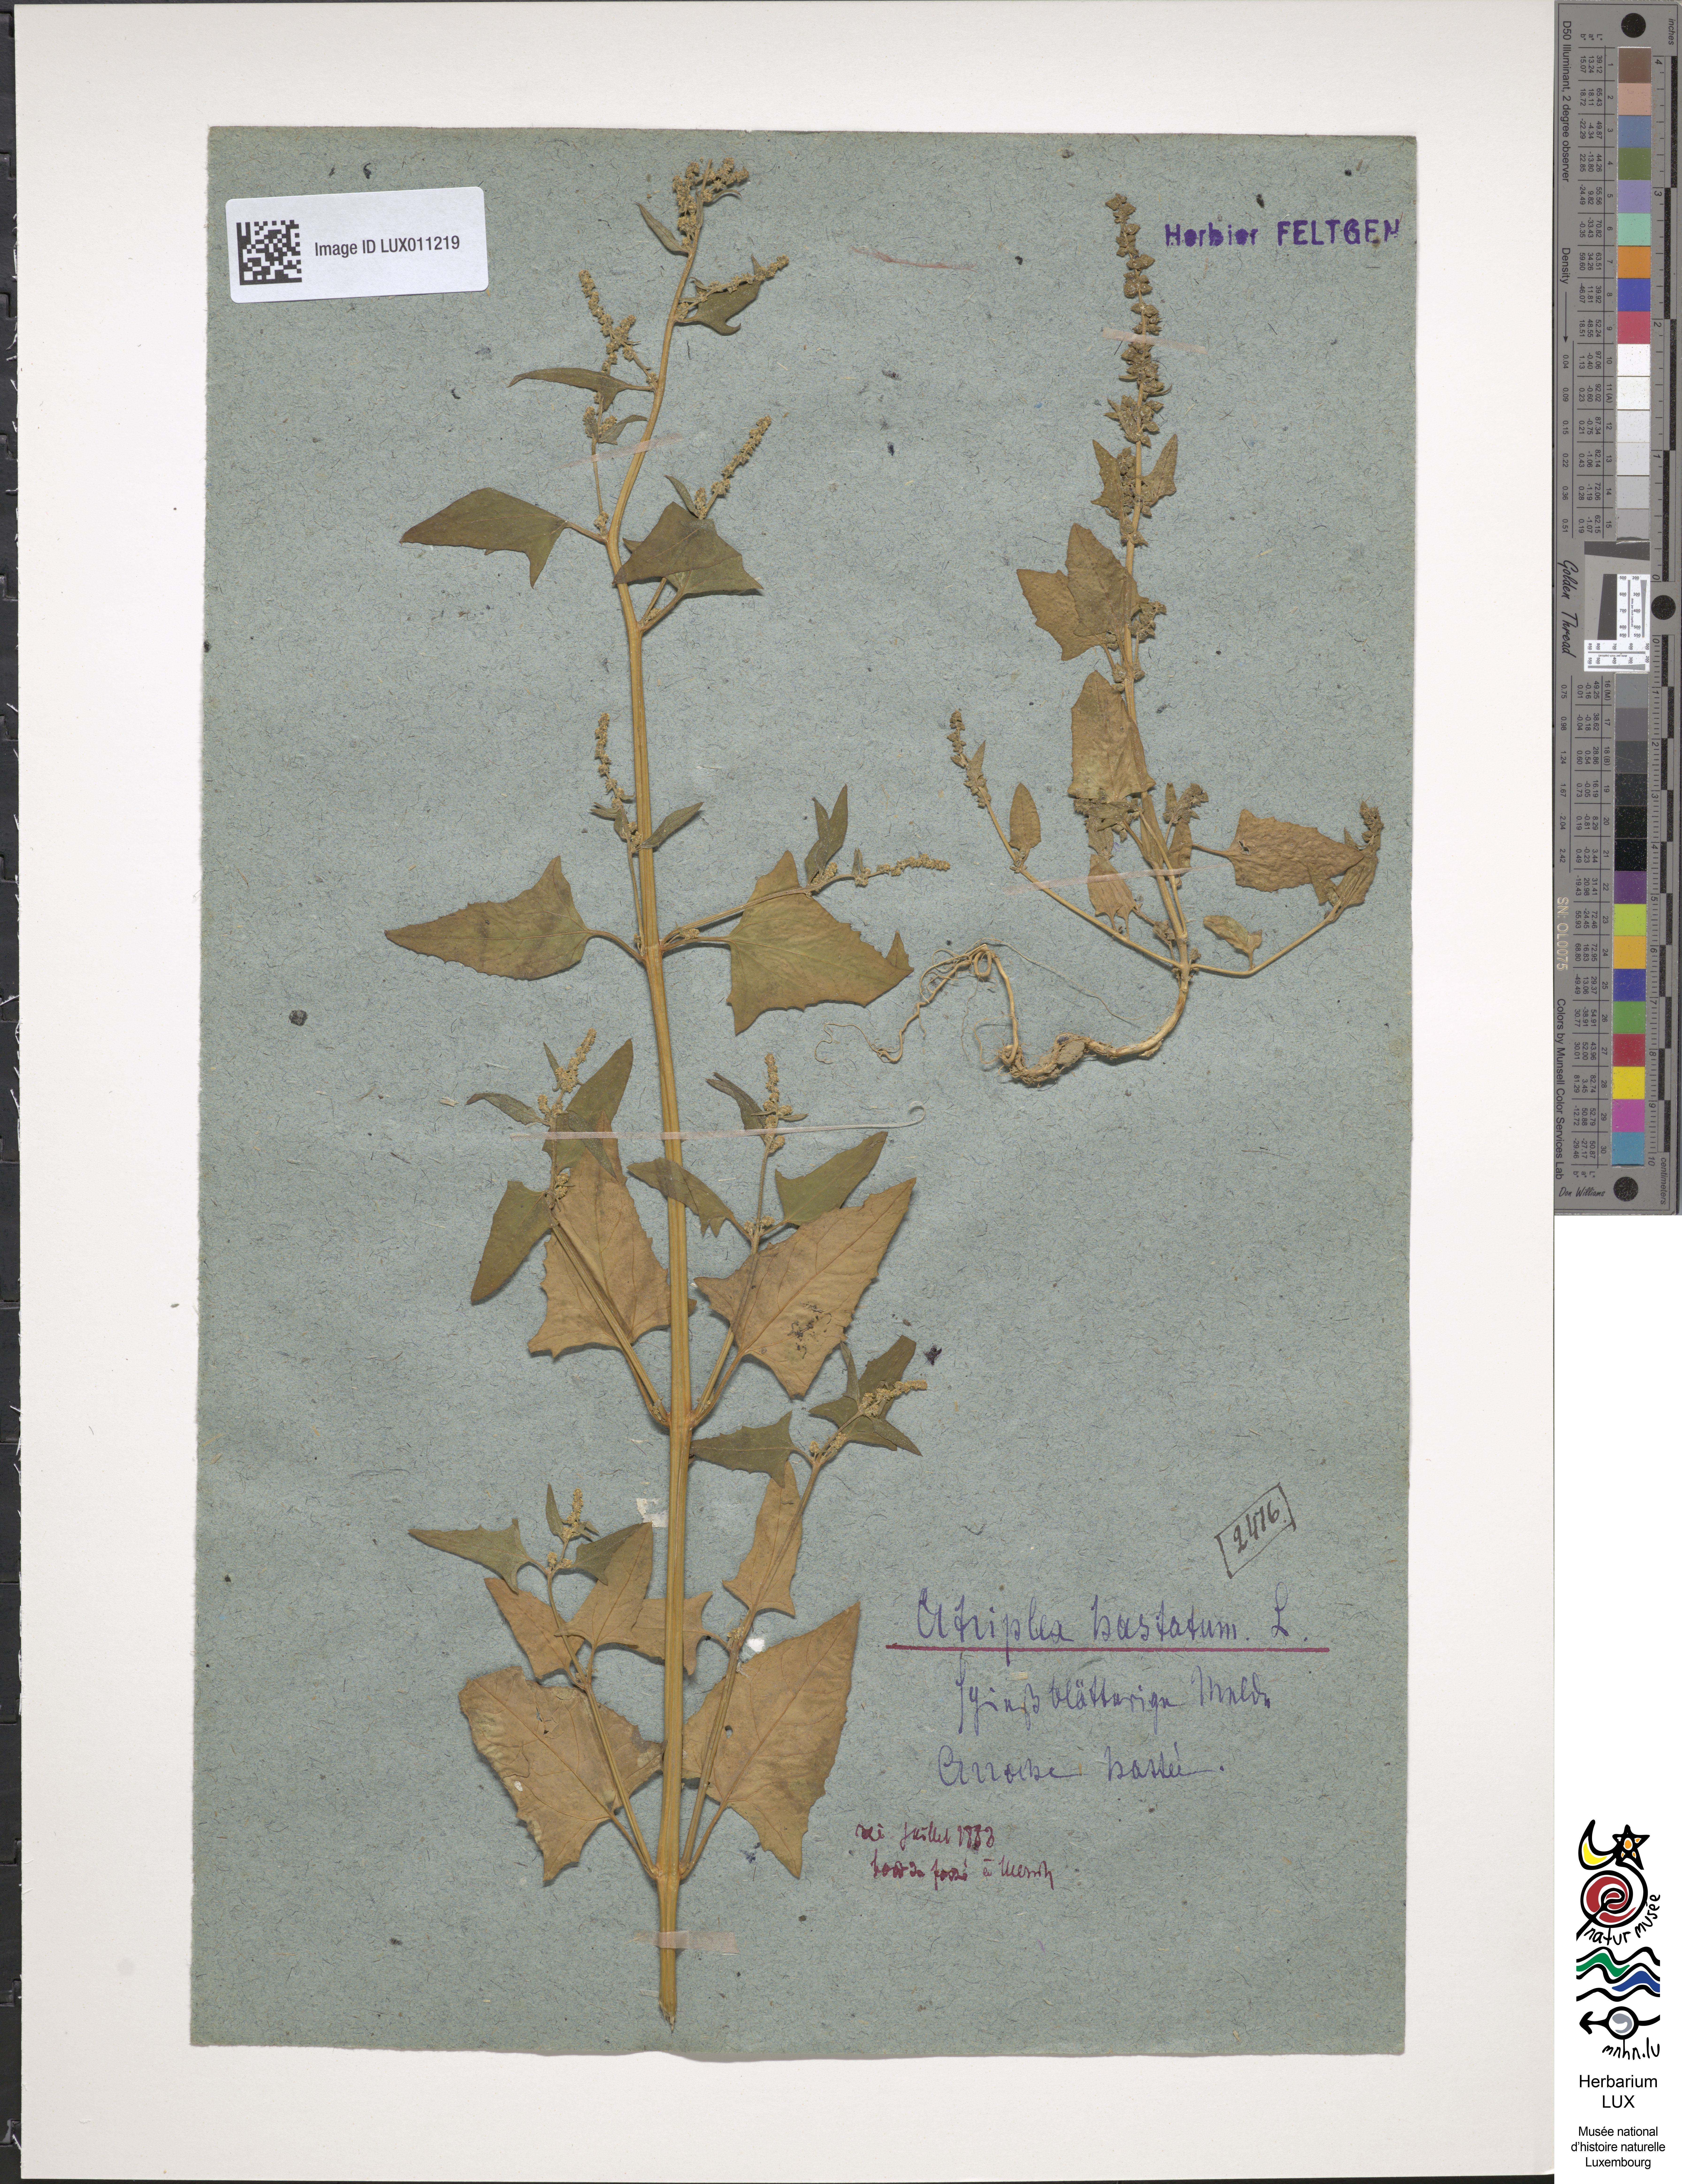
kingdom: Plantae
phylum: Tracheophyta
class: Magnoliopsida
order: Caryophyllales
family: Amaranthaceae
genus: Atriplex
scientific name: Atriplex
